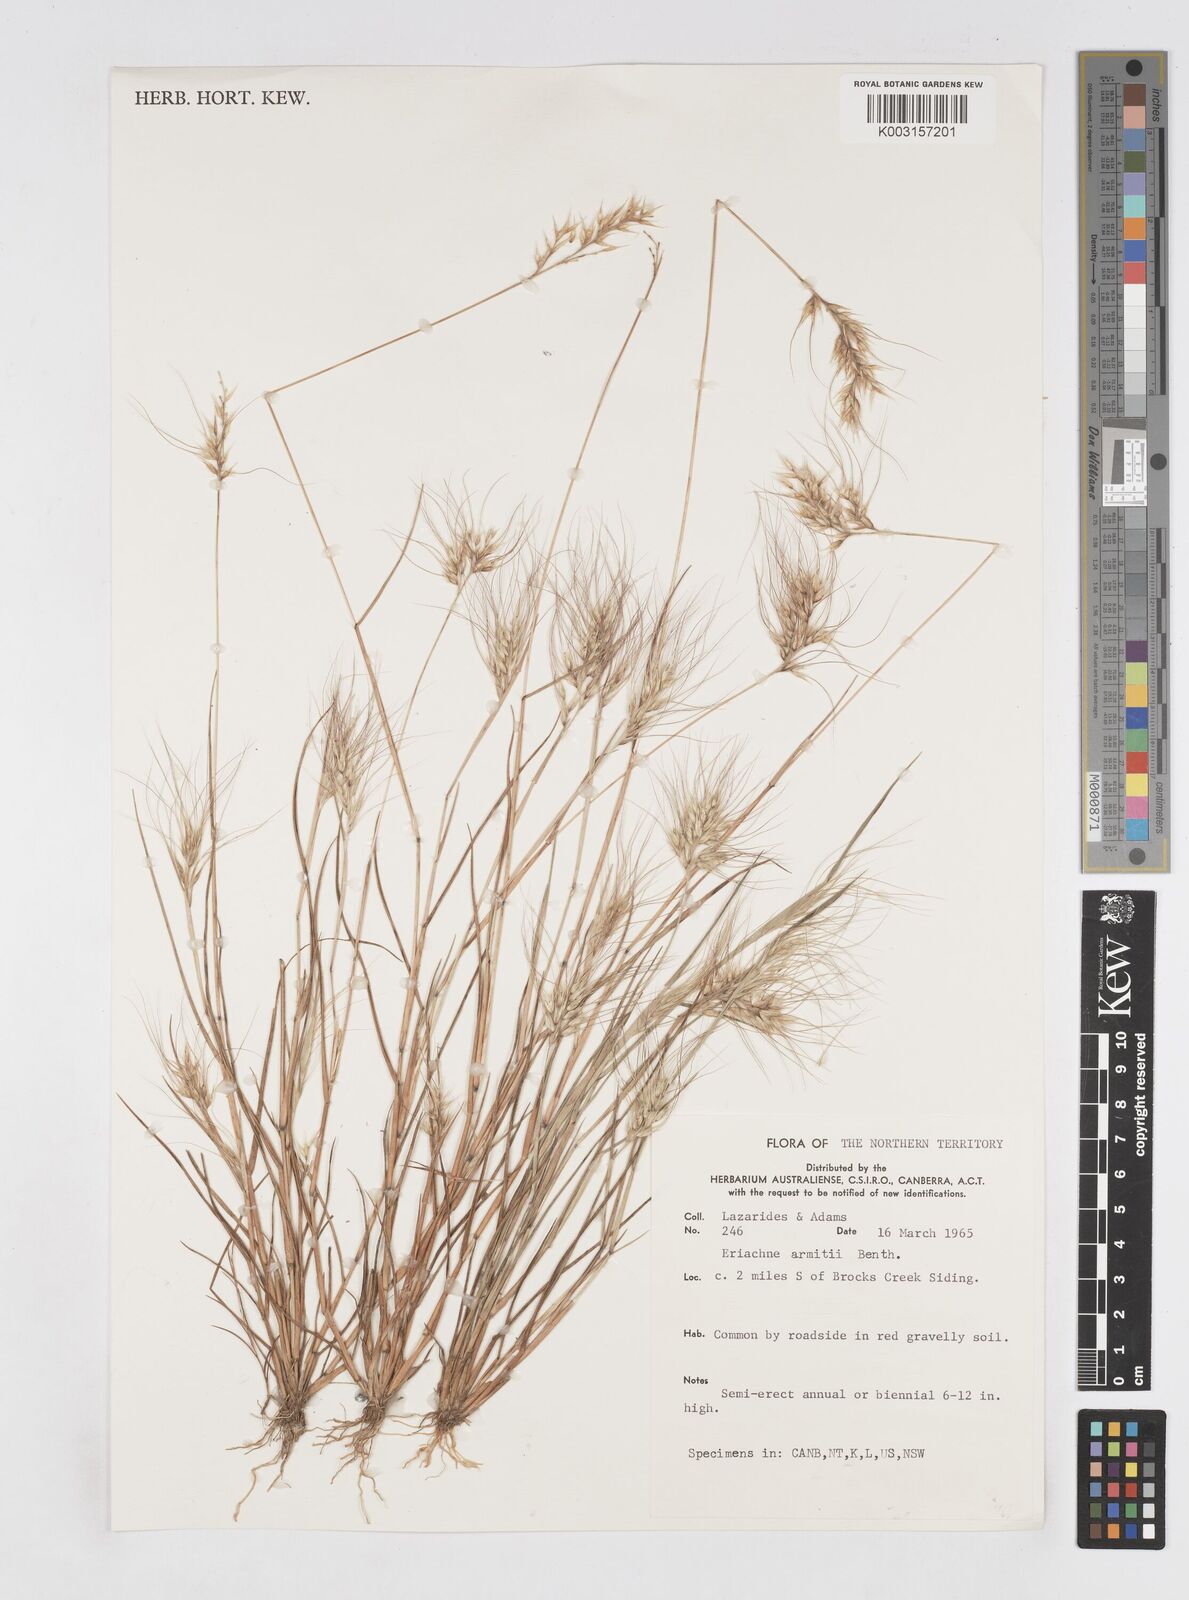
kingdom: Plantae
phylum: Tracheophyta
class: Liliopsida
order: Poales
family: Poaceae
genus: Eriachne
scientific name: Eriachne armitii
